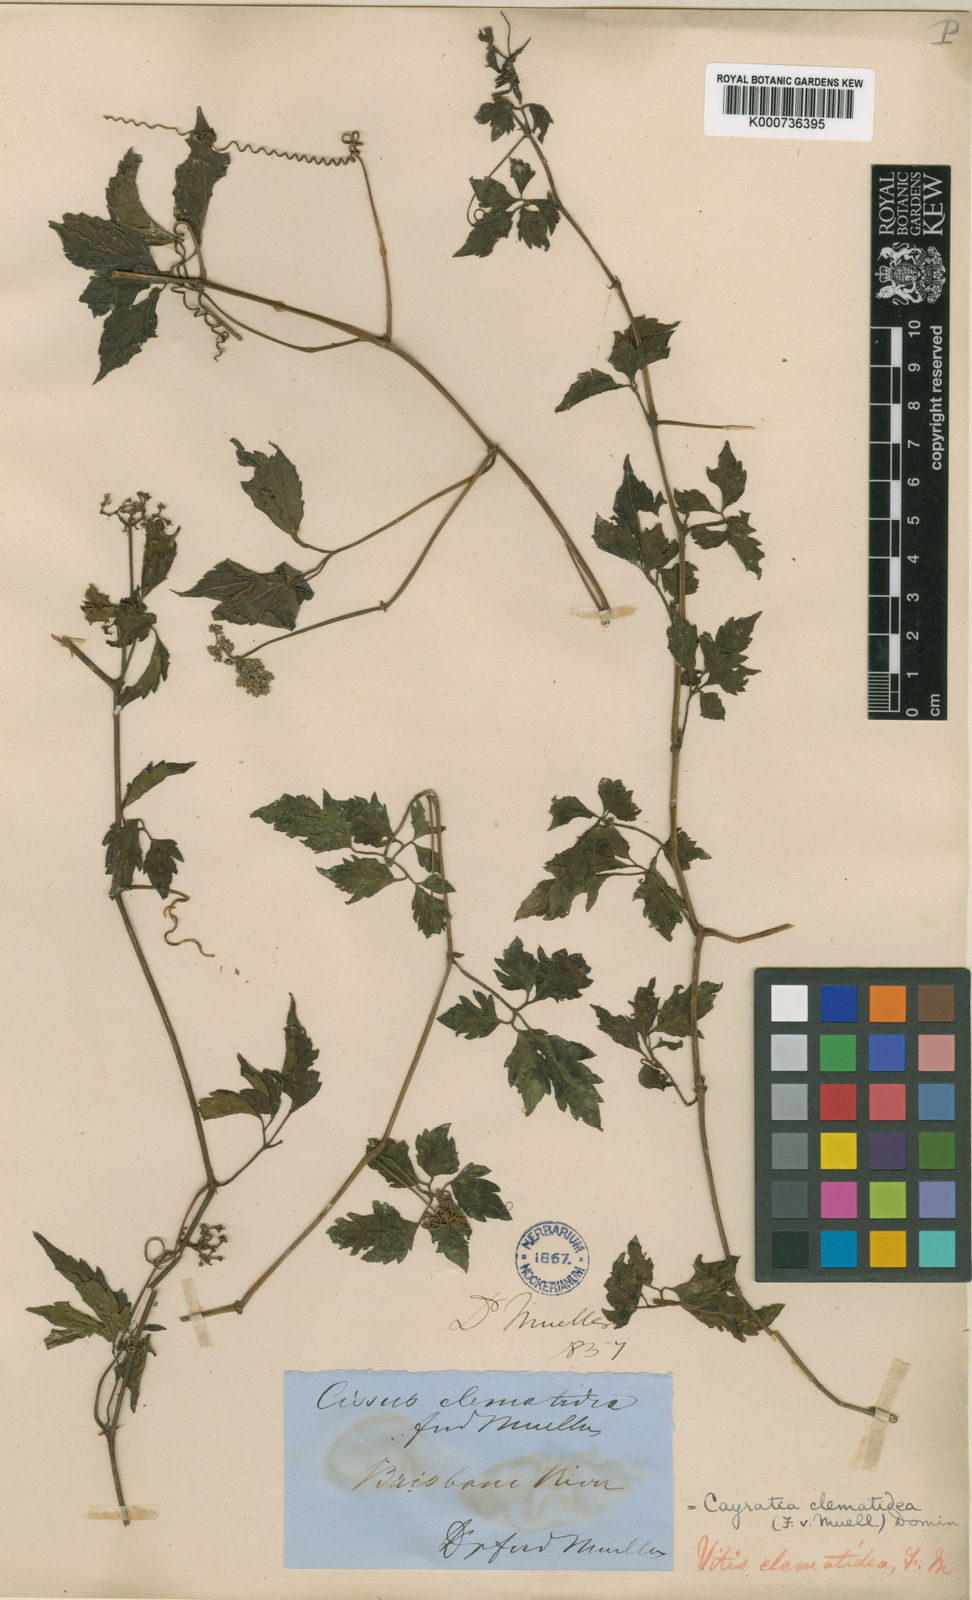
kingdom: Plantae
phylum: Tracheophyta
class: Magnoliopsida
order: Vitales
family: Vitaceae
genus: Causonis
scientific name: Causonis clematidea
